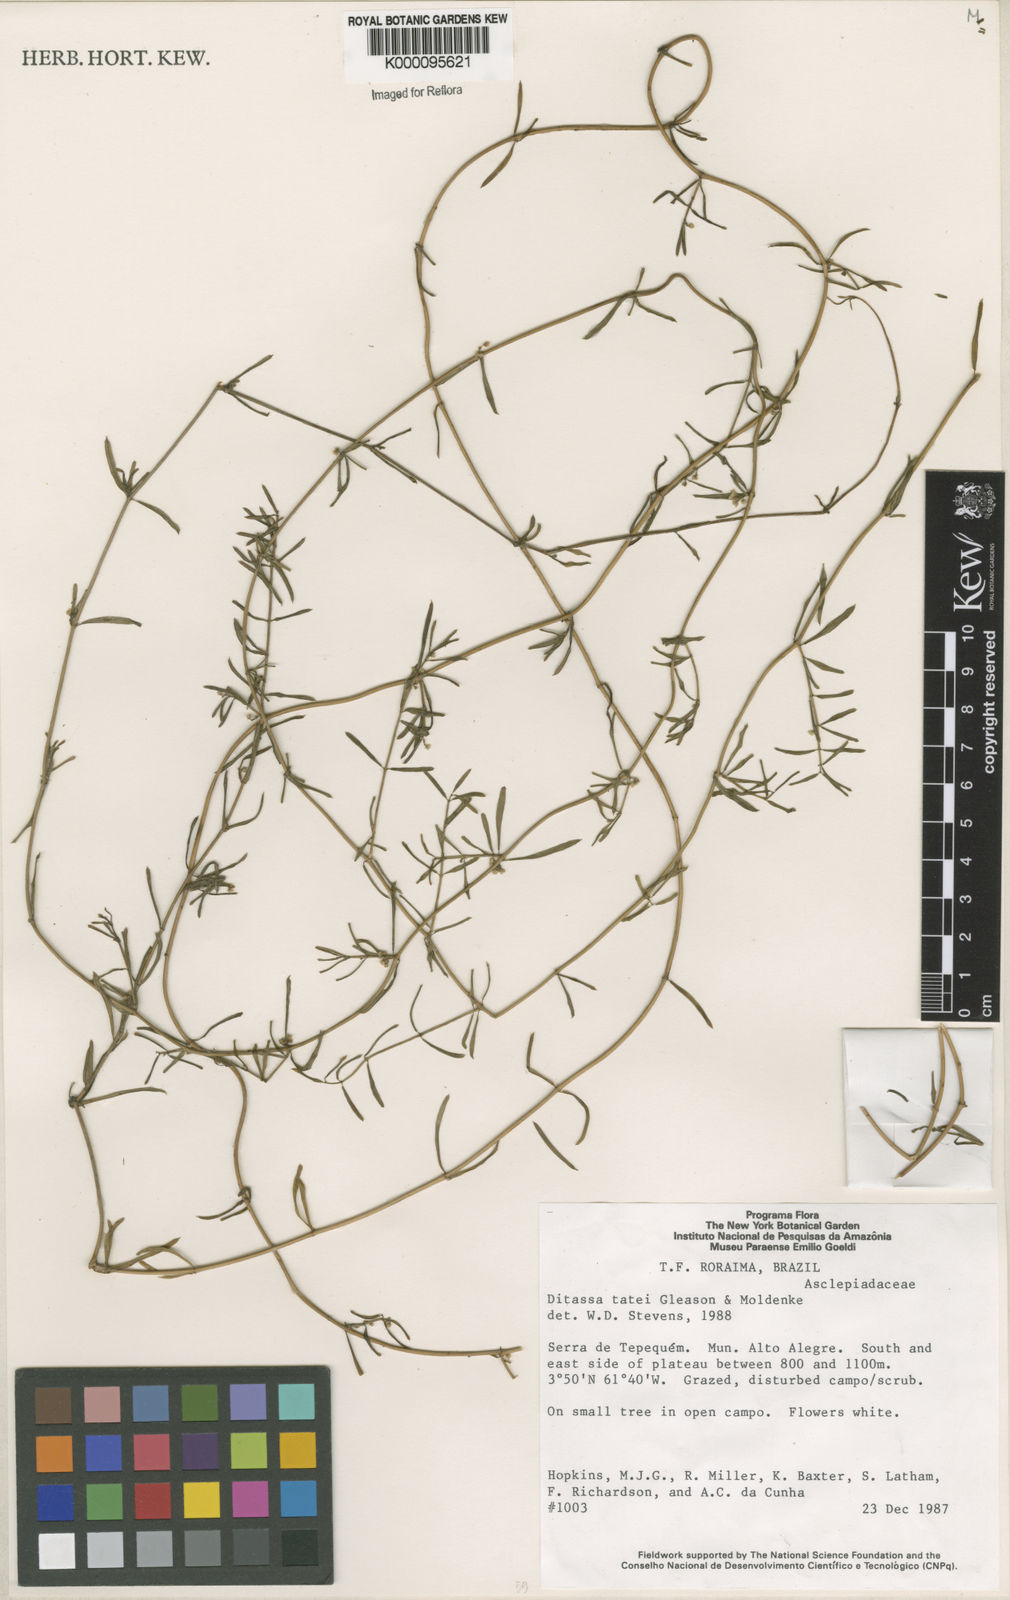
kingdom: Plantae
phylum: Tracheophyta
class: Magnoliopsida
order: Gentianales
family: Apocynaceae
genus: Ditassa
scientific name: Ditassa nigrescens
